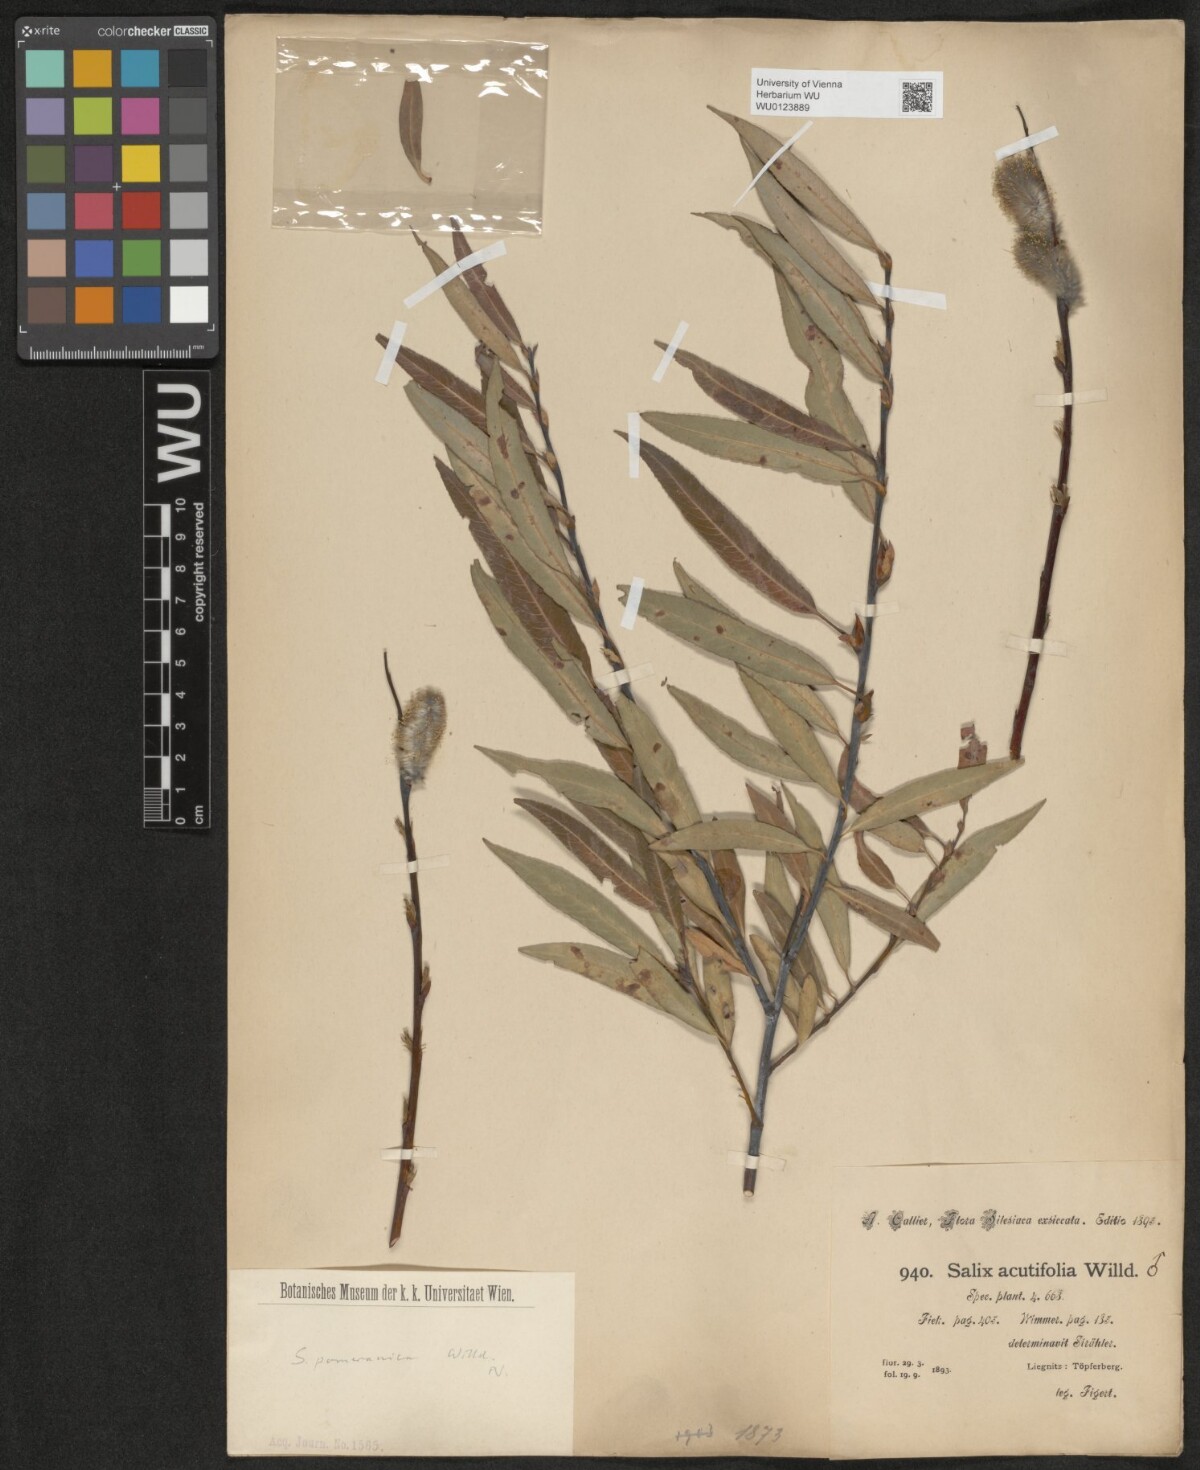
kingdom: Plantae
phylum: Tracheophyta
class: Magnoliopsida
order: Malpighiales
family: Salicaceae
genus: Salix
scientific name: Salix acutifolia
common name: Siberian violet-willow
